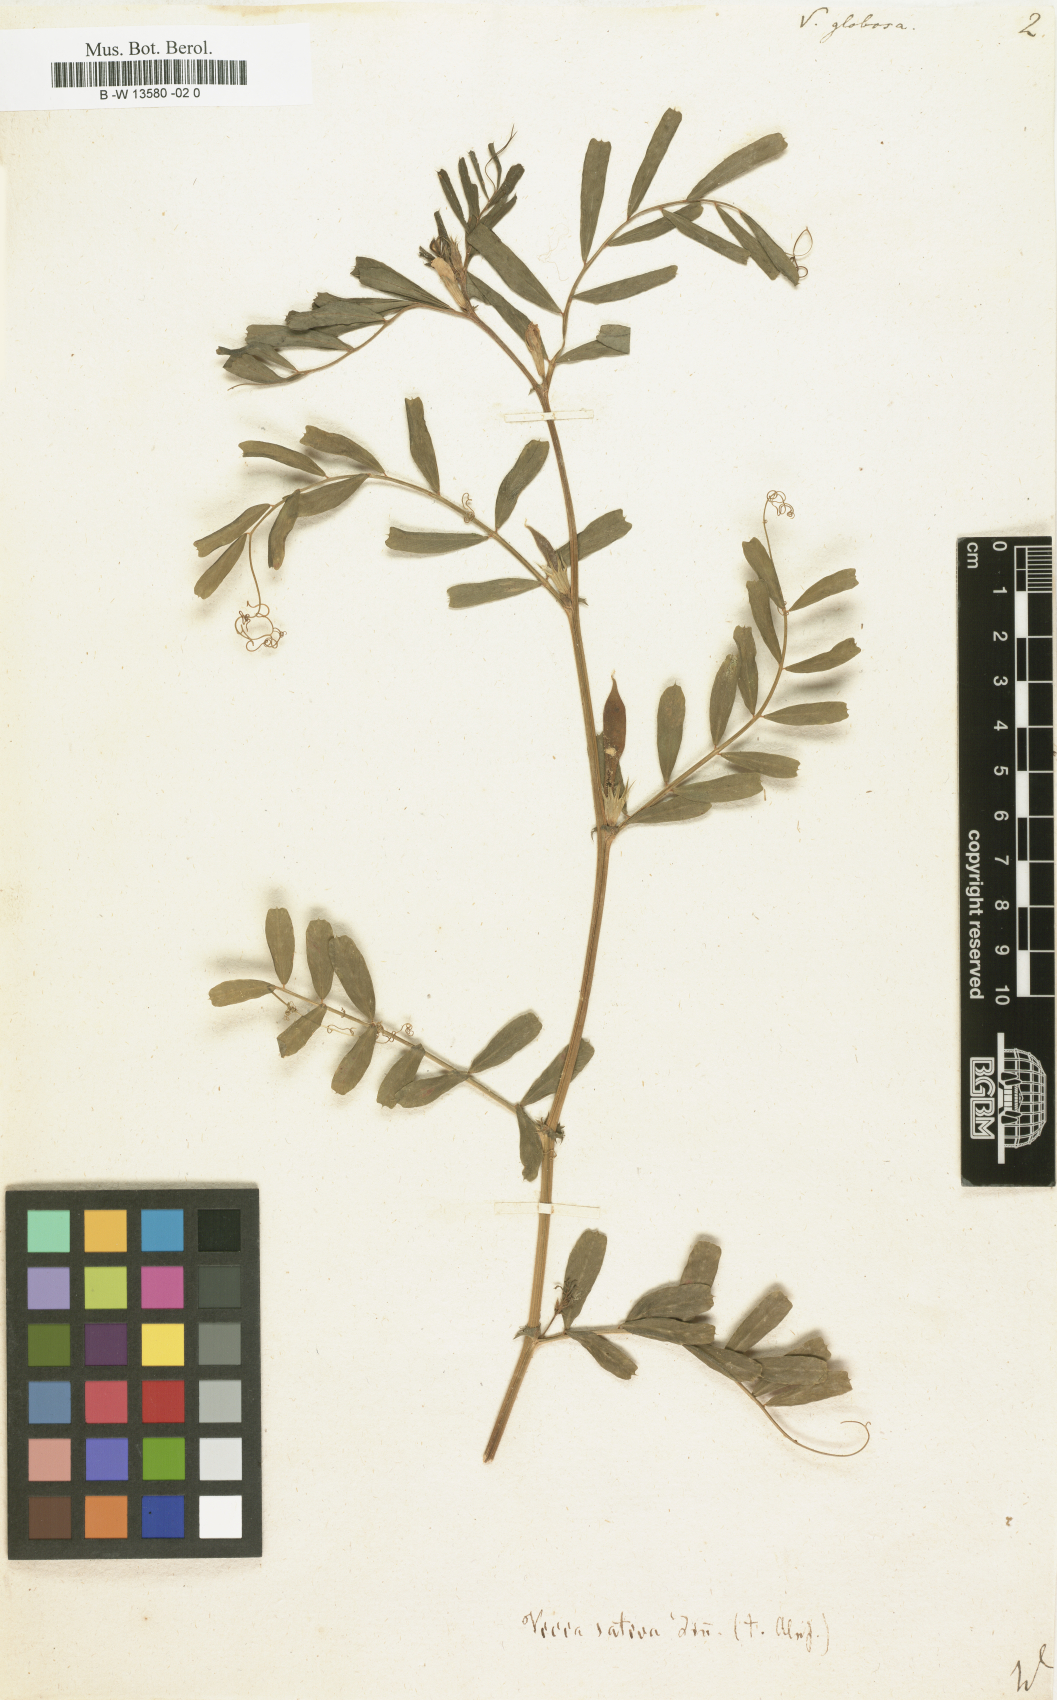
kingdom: Plantae
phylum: Tracheophyta
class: Magnoliopsida
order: Fabales
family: Fabaceae
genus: Vicia
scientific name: Vicia sativa
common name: Garden vetch
